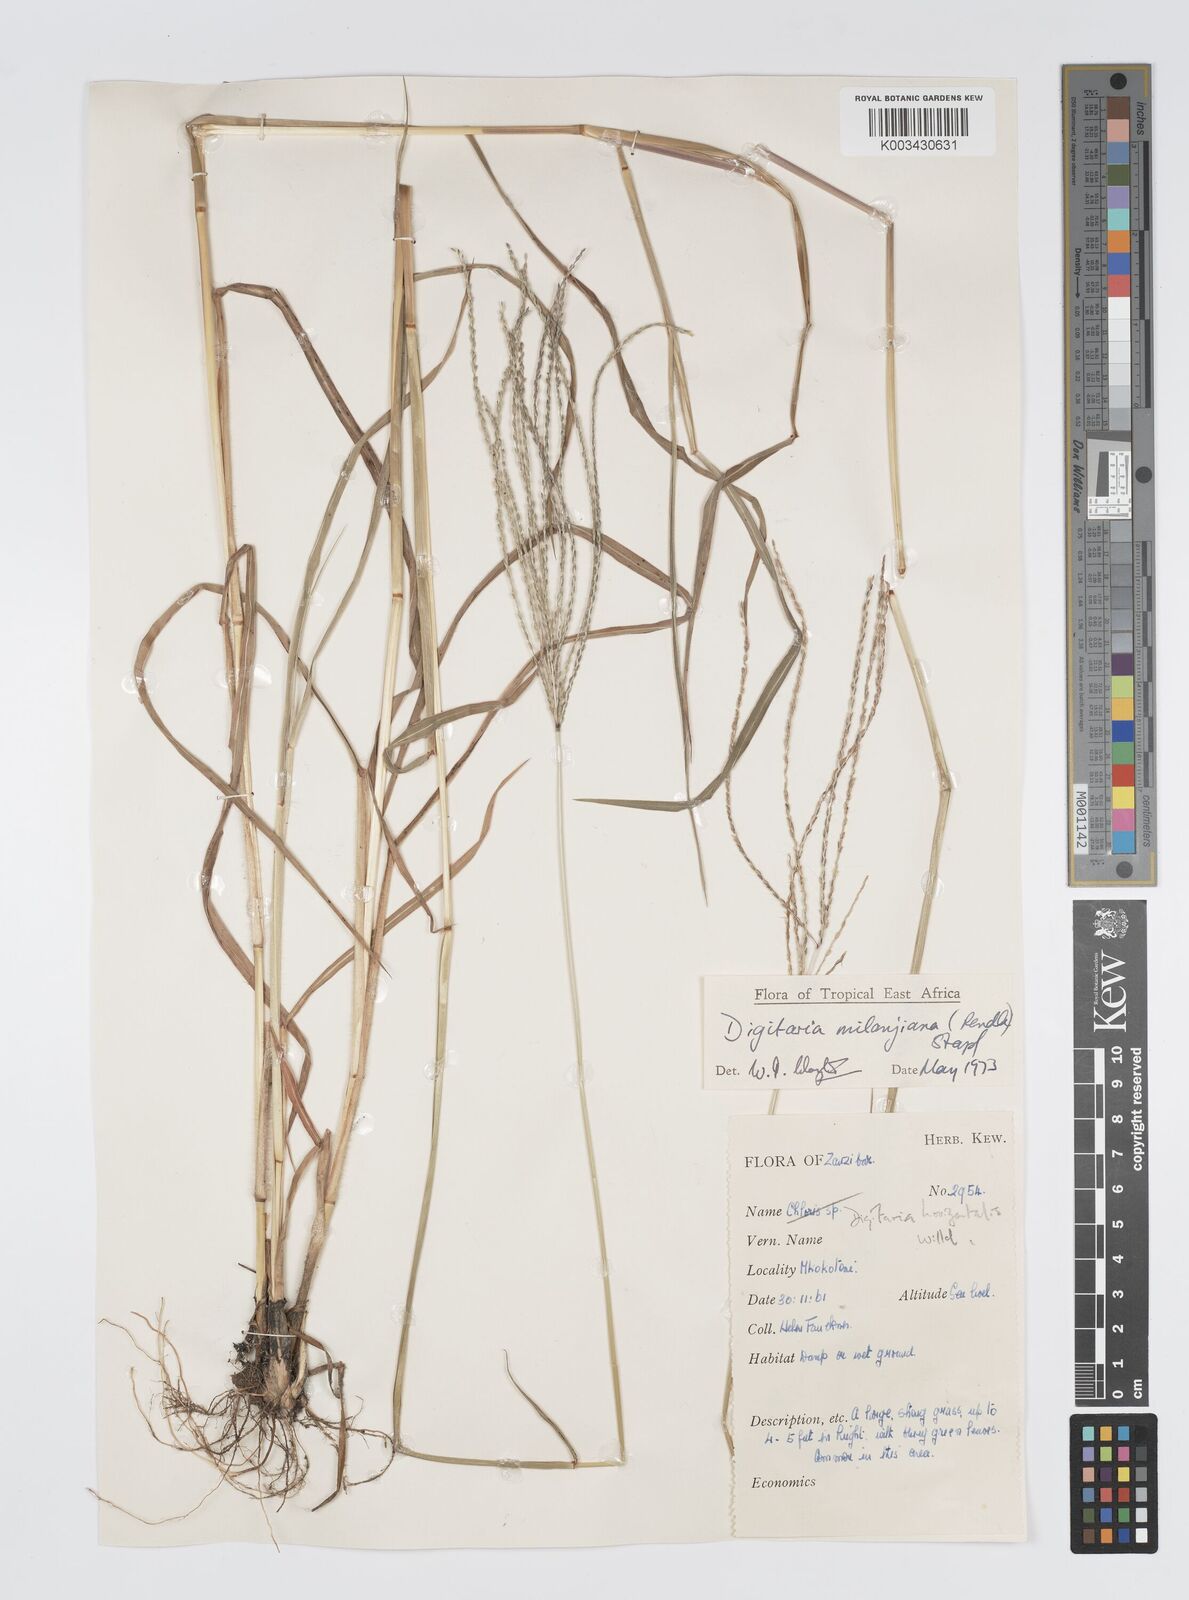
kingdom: Plantae
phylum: Tracheophyta
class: Liliopsida
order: Poales
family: Poaceae
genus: Digitaria
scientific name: Digitaria milanjiana
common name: Madagascar crabgrass
